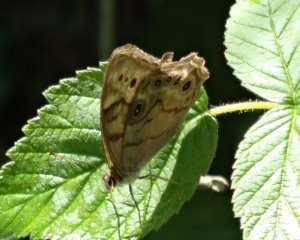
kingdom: Animalia
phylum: Arthropoda
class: Insecta
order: Lepidoptera
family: Nymphalidae
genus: Lethe
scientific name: Lethe anthedon
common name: Northern Pearly-Eye
